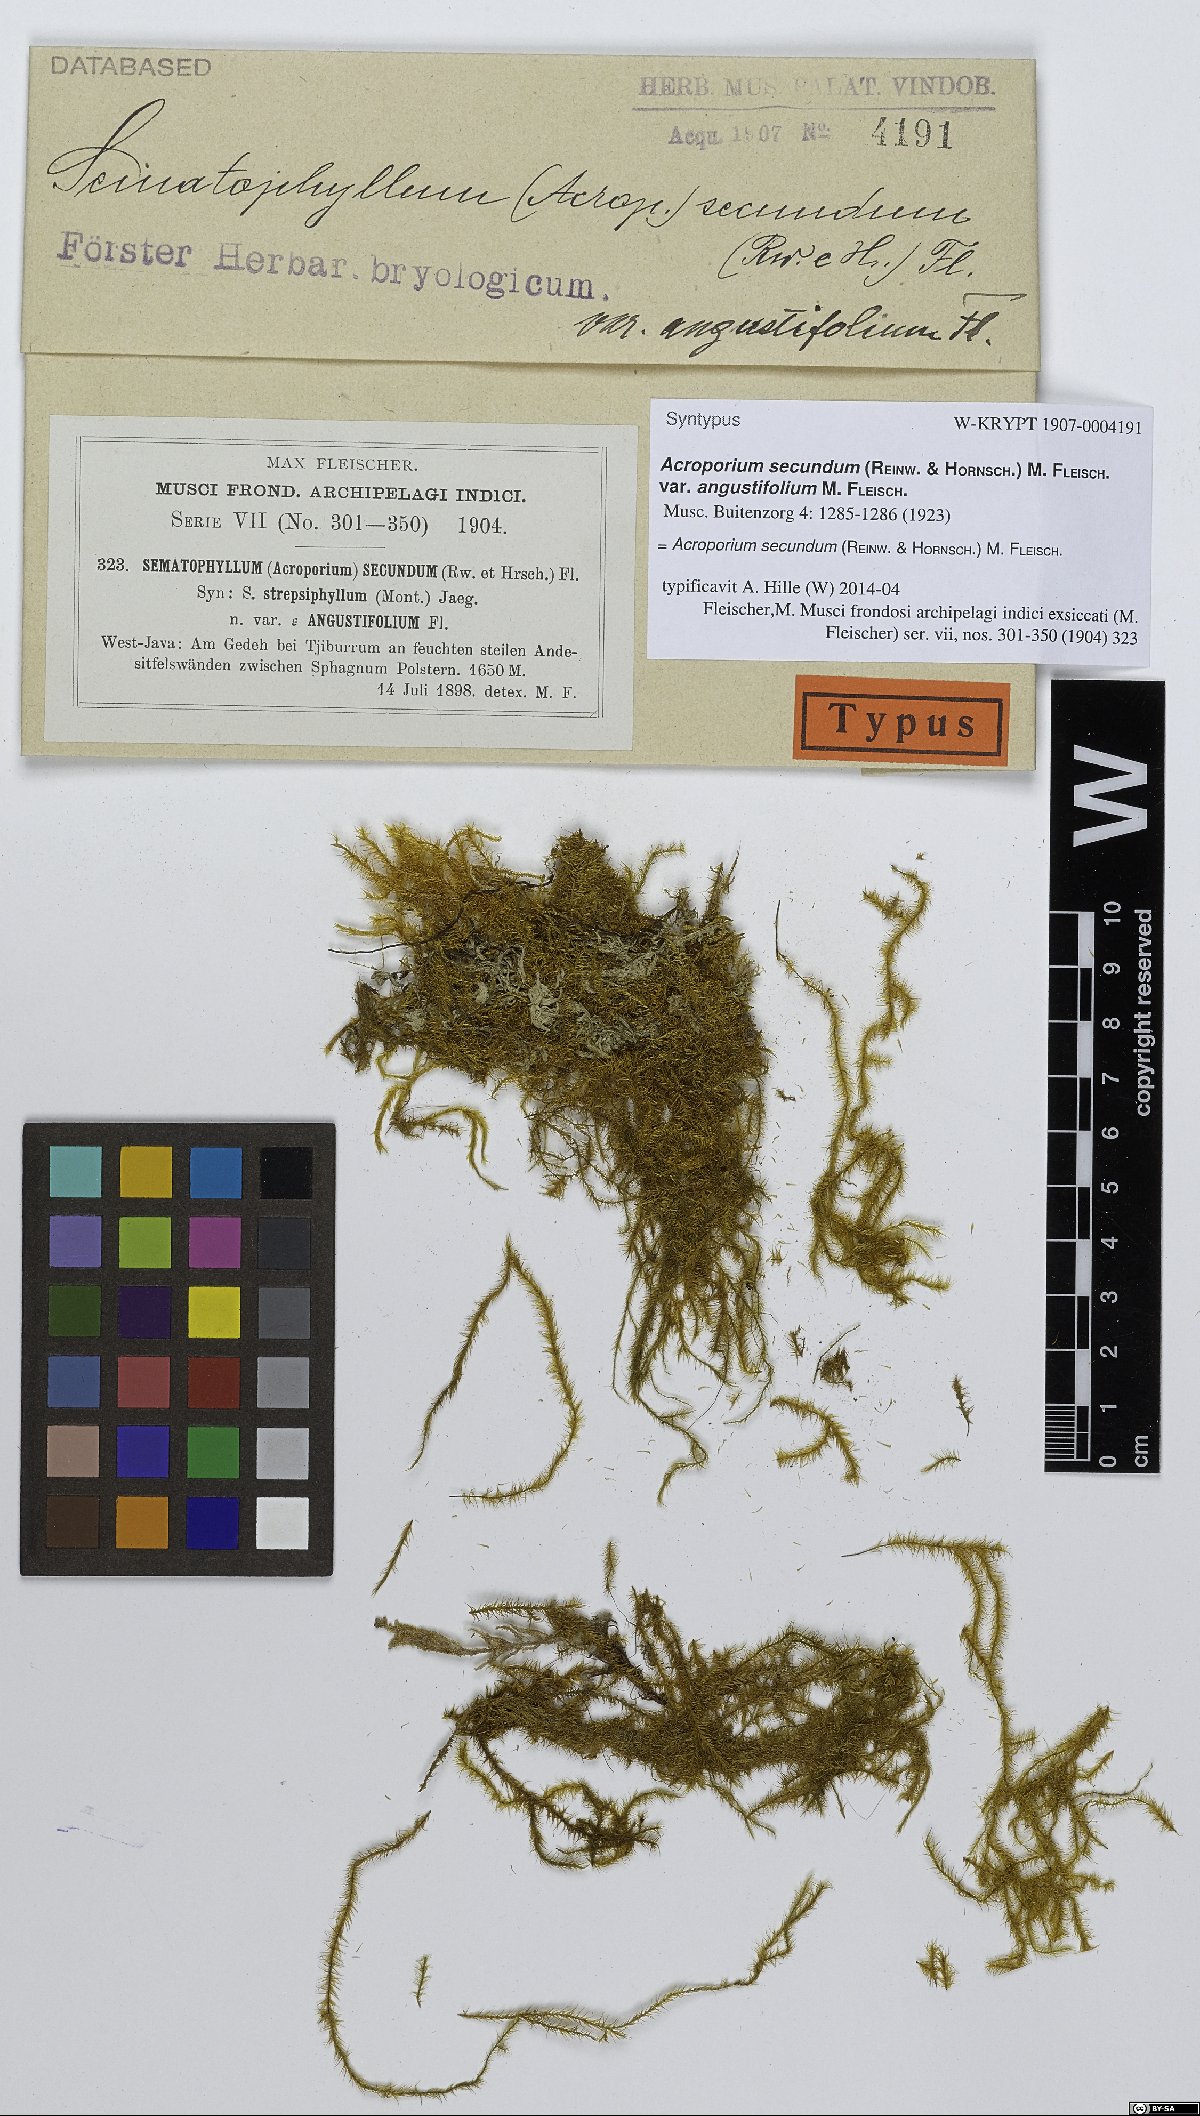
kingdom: Plantae
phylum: Bryophyta
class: Bryopsida
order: Hypnales
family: Sematophyllaceae
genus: Acroporium
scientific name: Acroporium strepsiphyllum
